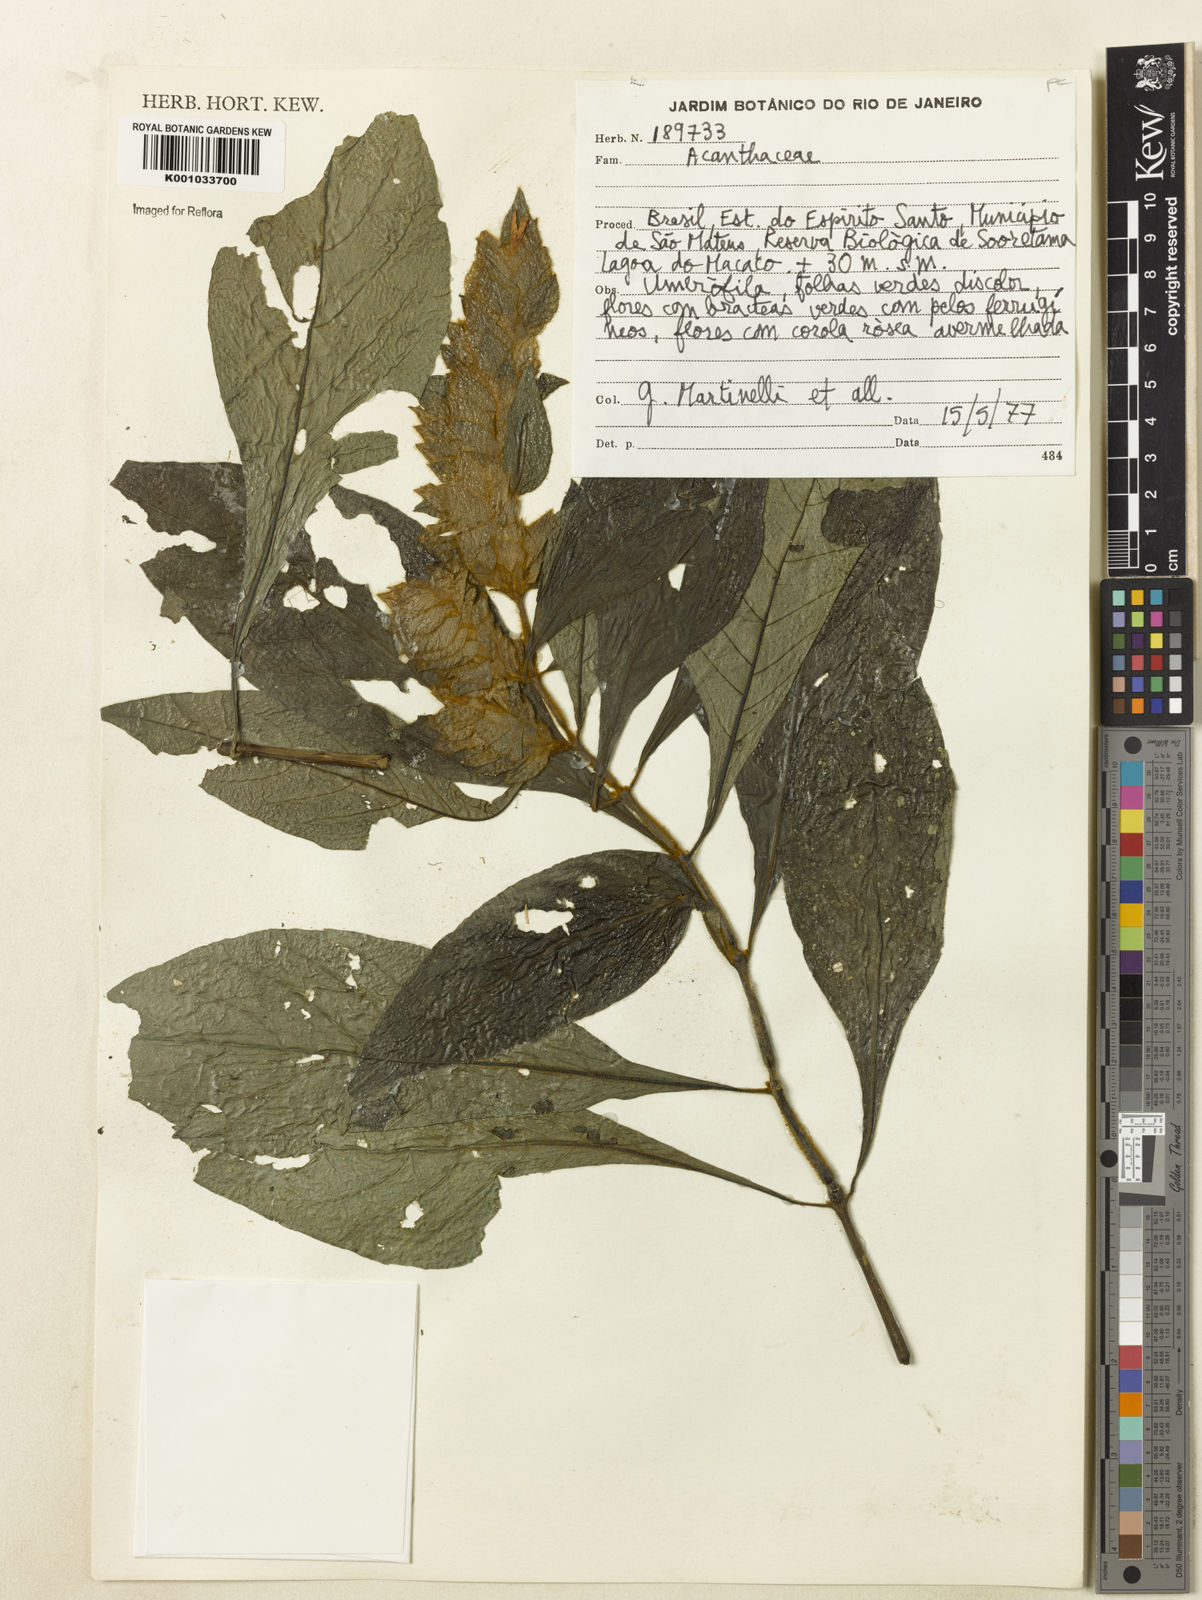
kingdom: Plantae
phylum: Tracheophyta
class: Magnoliopsida
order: Lamiales
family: Acanthaceae
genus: Justicia
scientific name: Justicia
